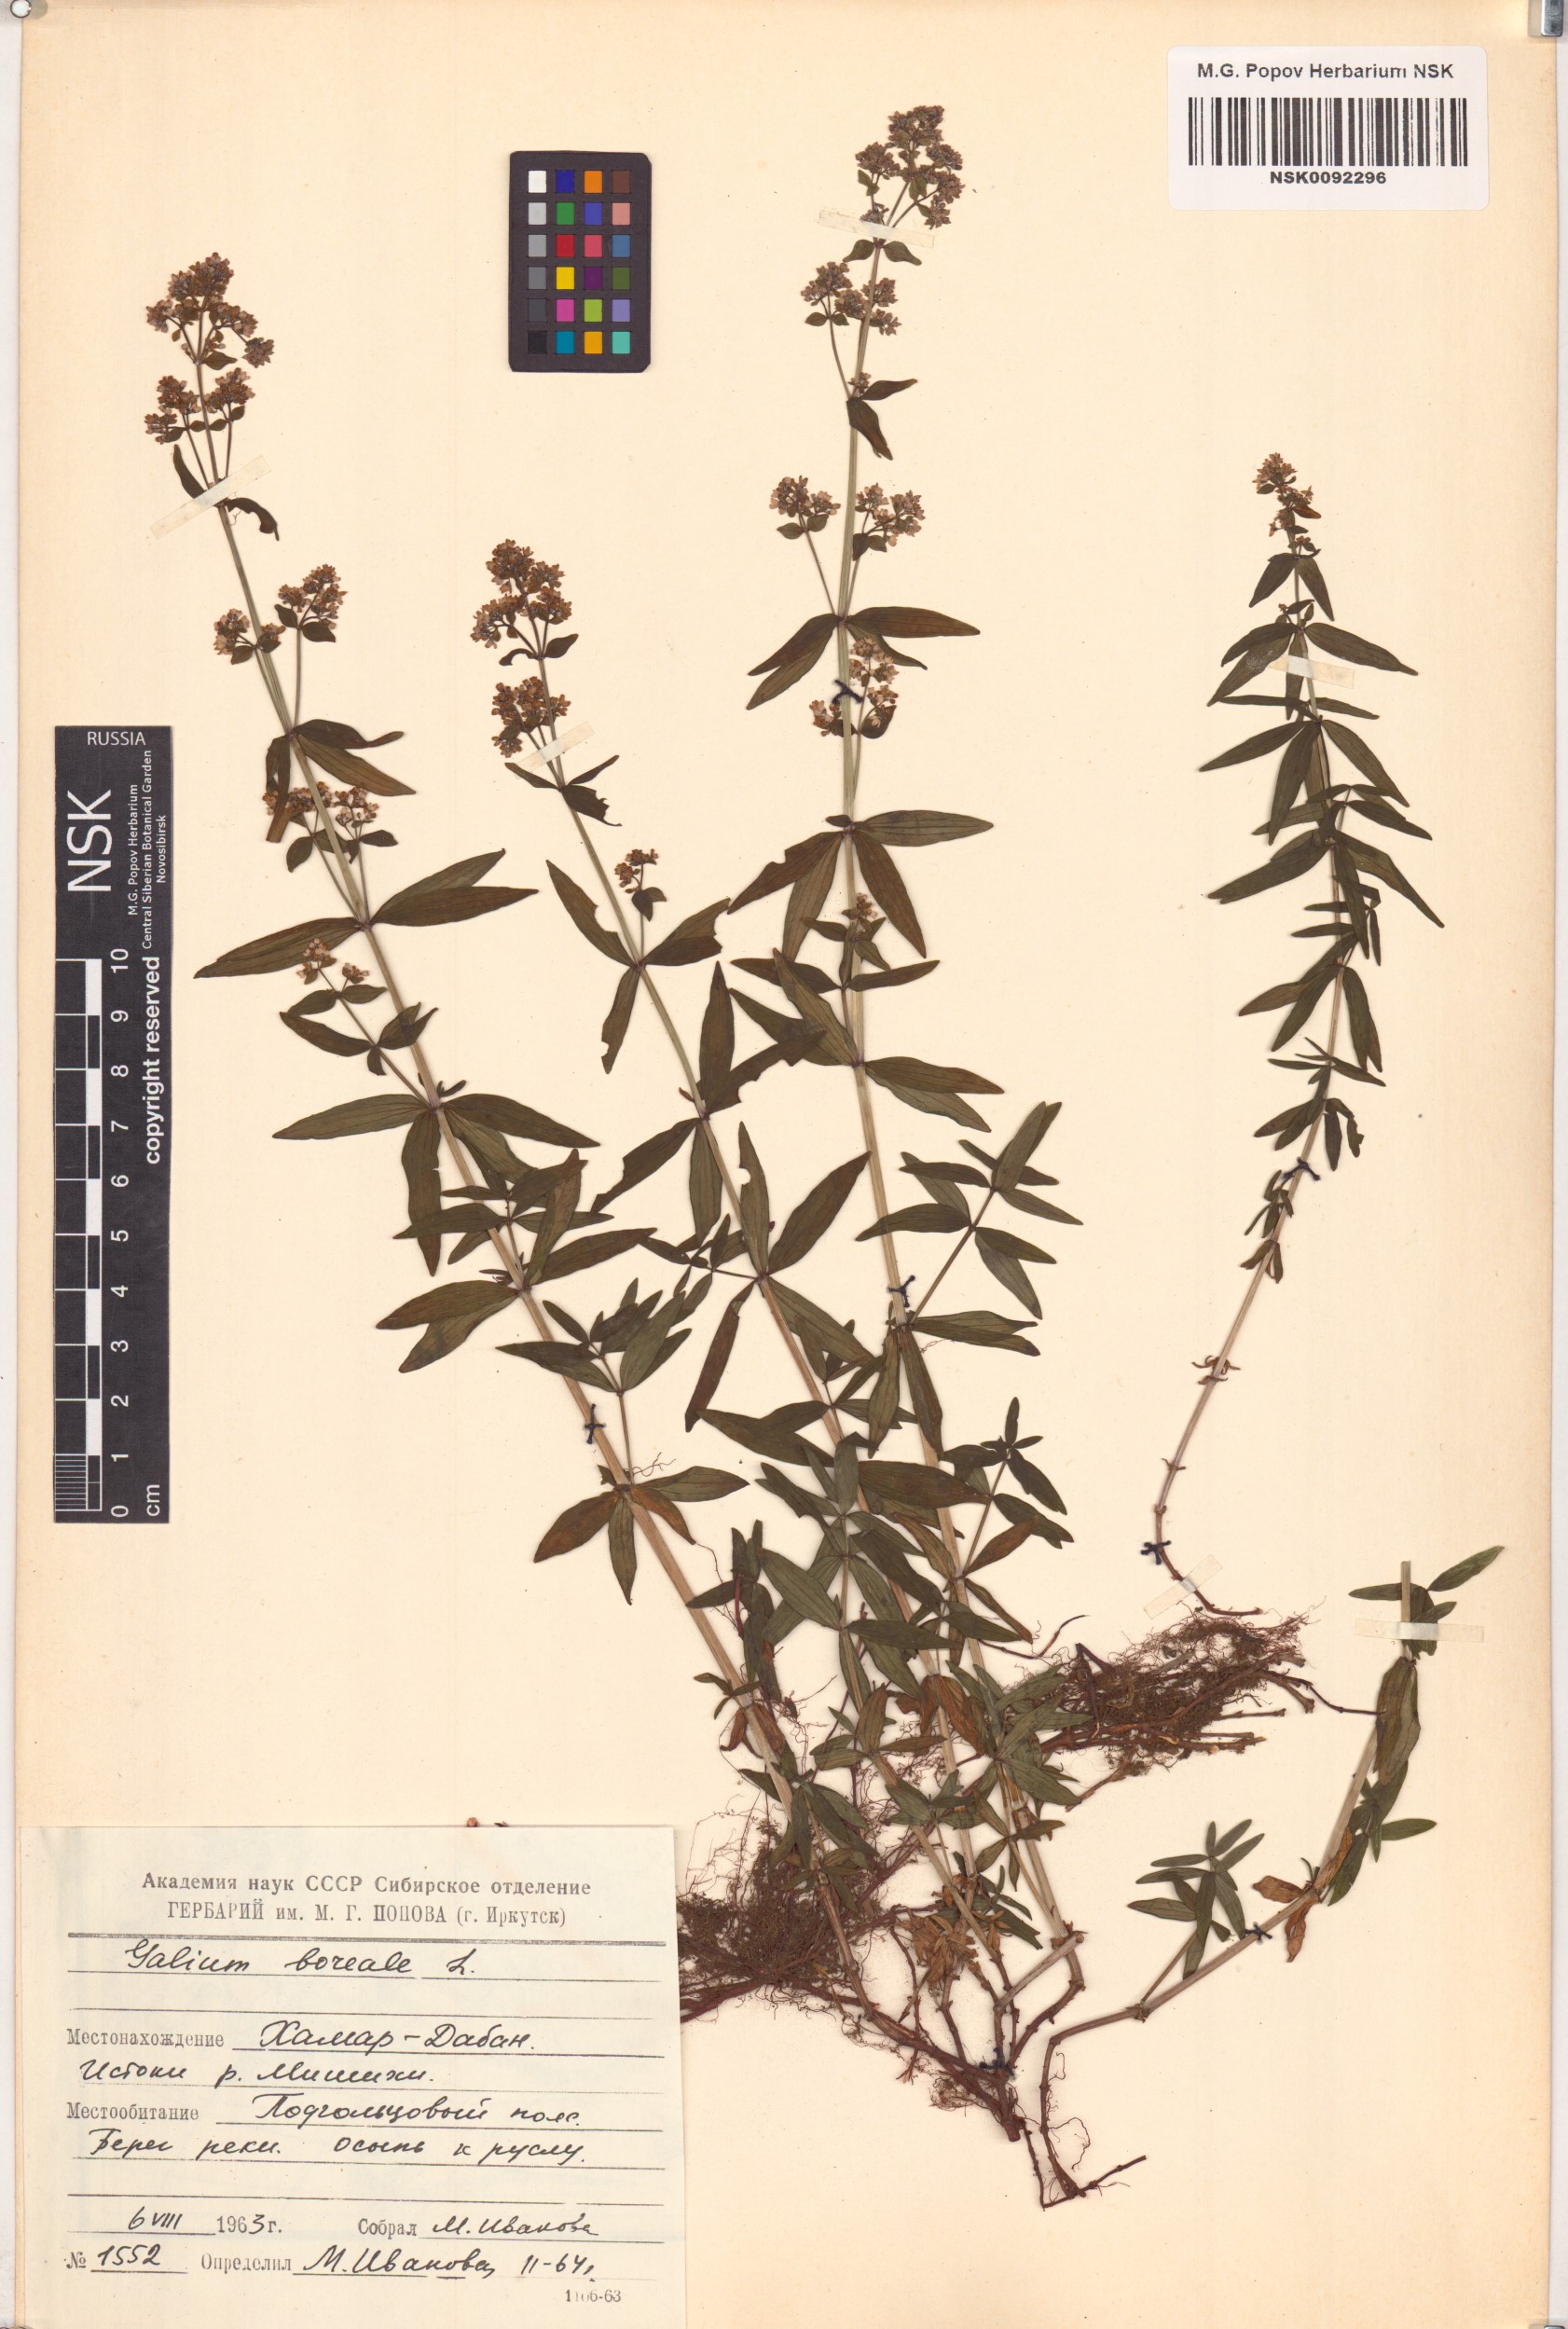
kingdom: Plantae
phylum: Tracheophyta
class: Magnoliopsida
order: Gentianales
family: Rubiaceae
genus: Galium
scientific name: Galium boreale
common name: Northern bedstraw
